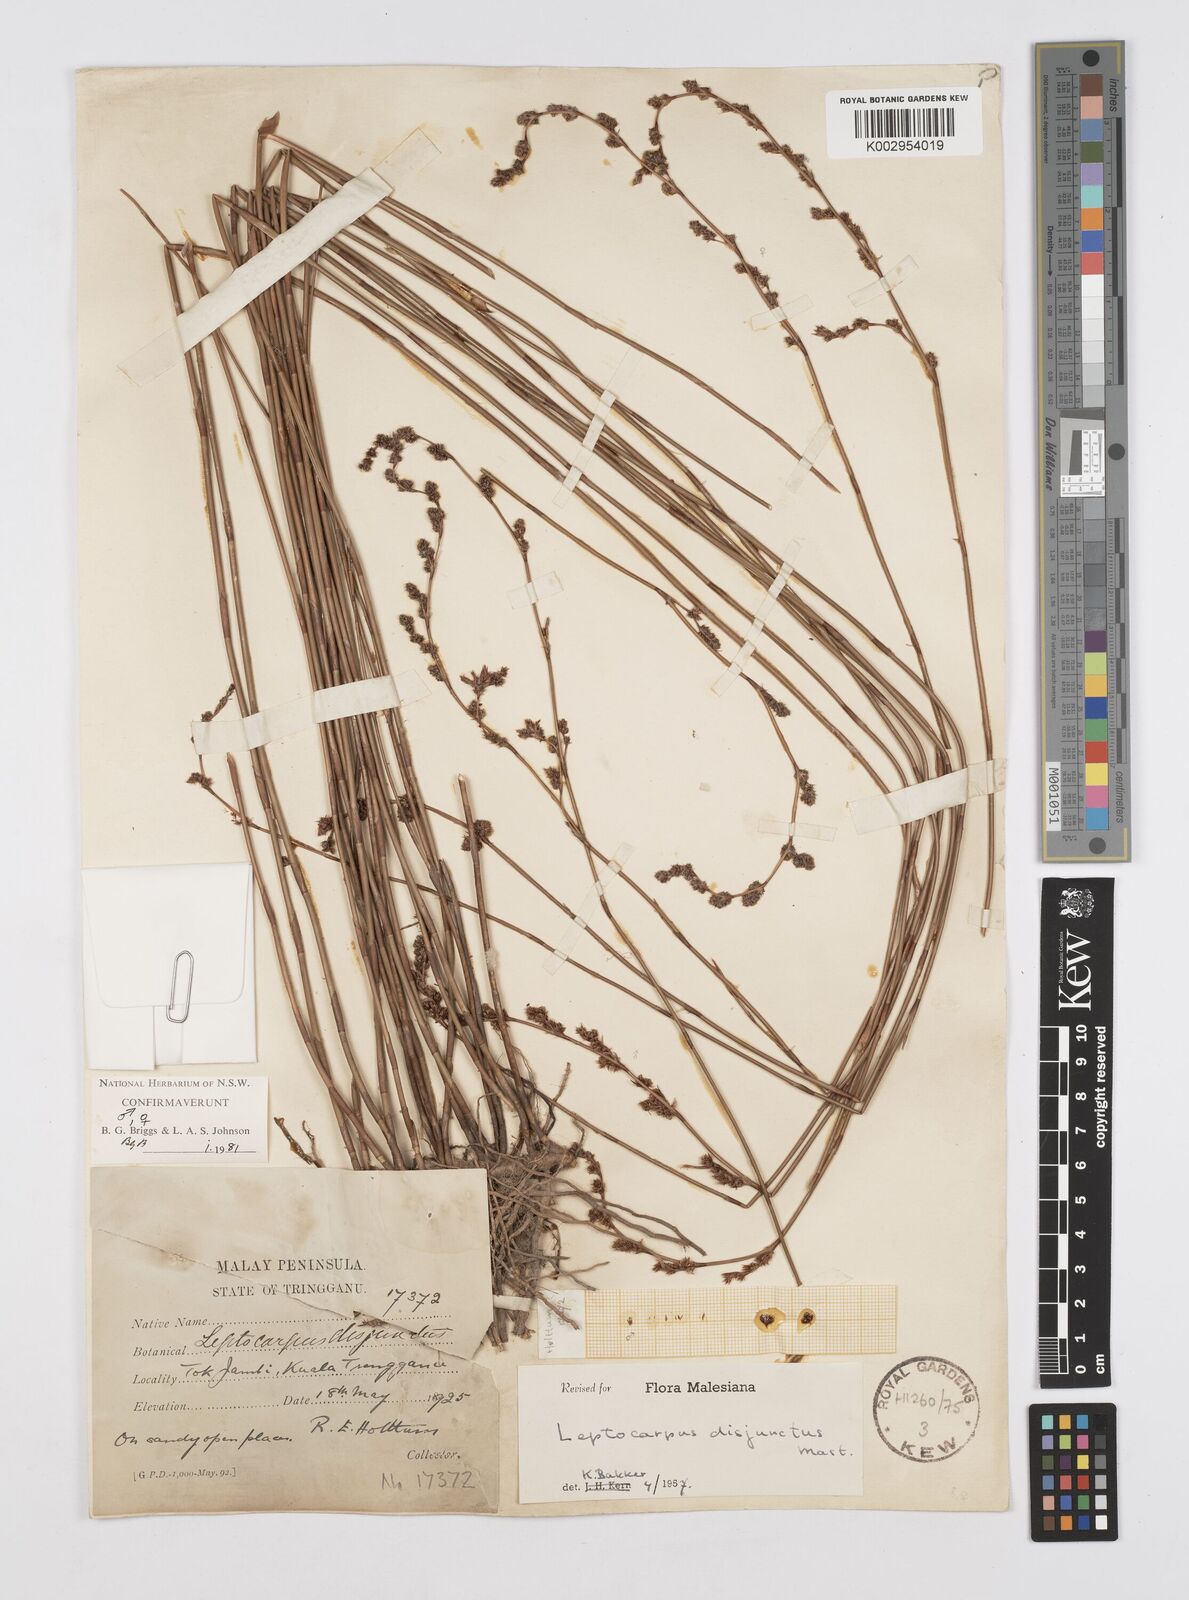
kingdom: Plantae
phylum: Tracheophyta
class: Liliopsida
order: Poales
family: Restionaceae
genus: Dapsilanthus
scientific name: Dapsilanthus disjunctus
